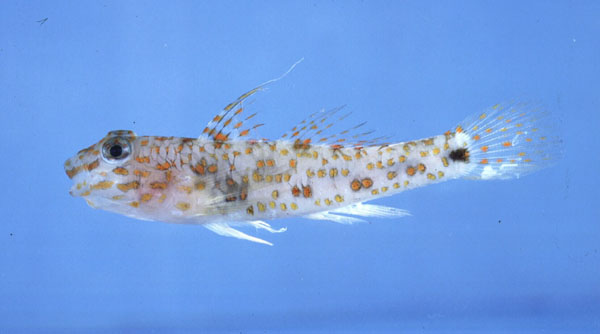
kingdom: Animalia
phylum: Chordata
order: Perciformes
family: Gobiidae
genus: Fusigobius
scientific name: Fusigobius longispinus
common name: Longspine goby
